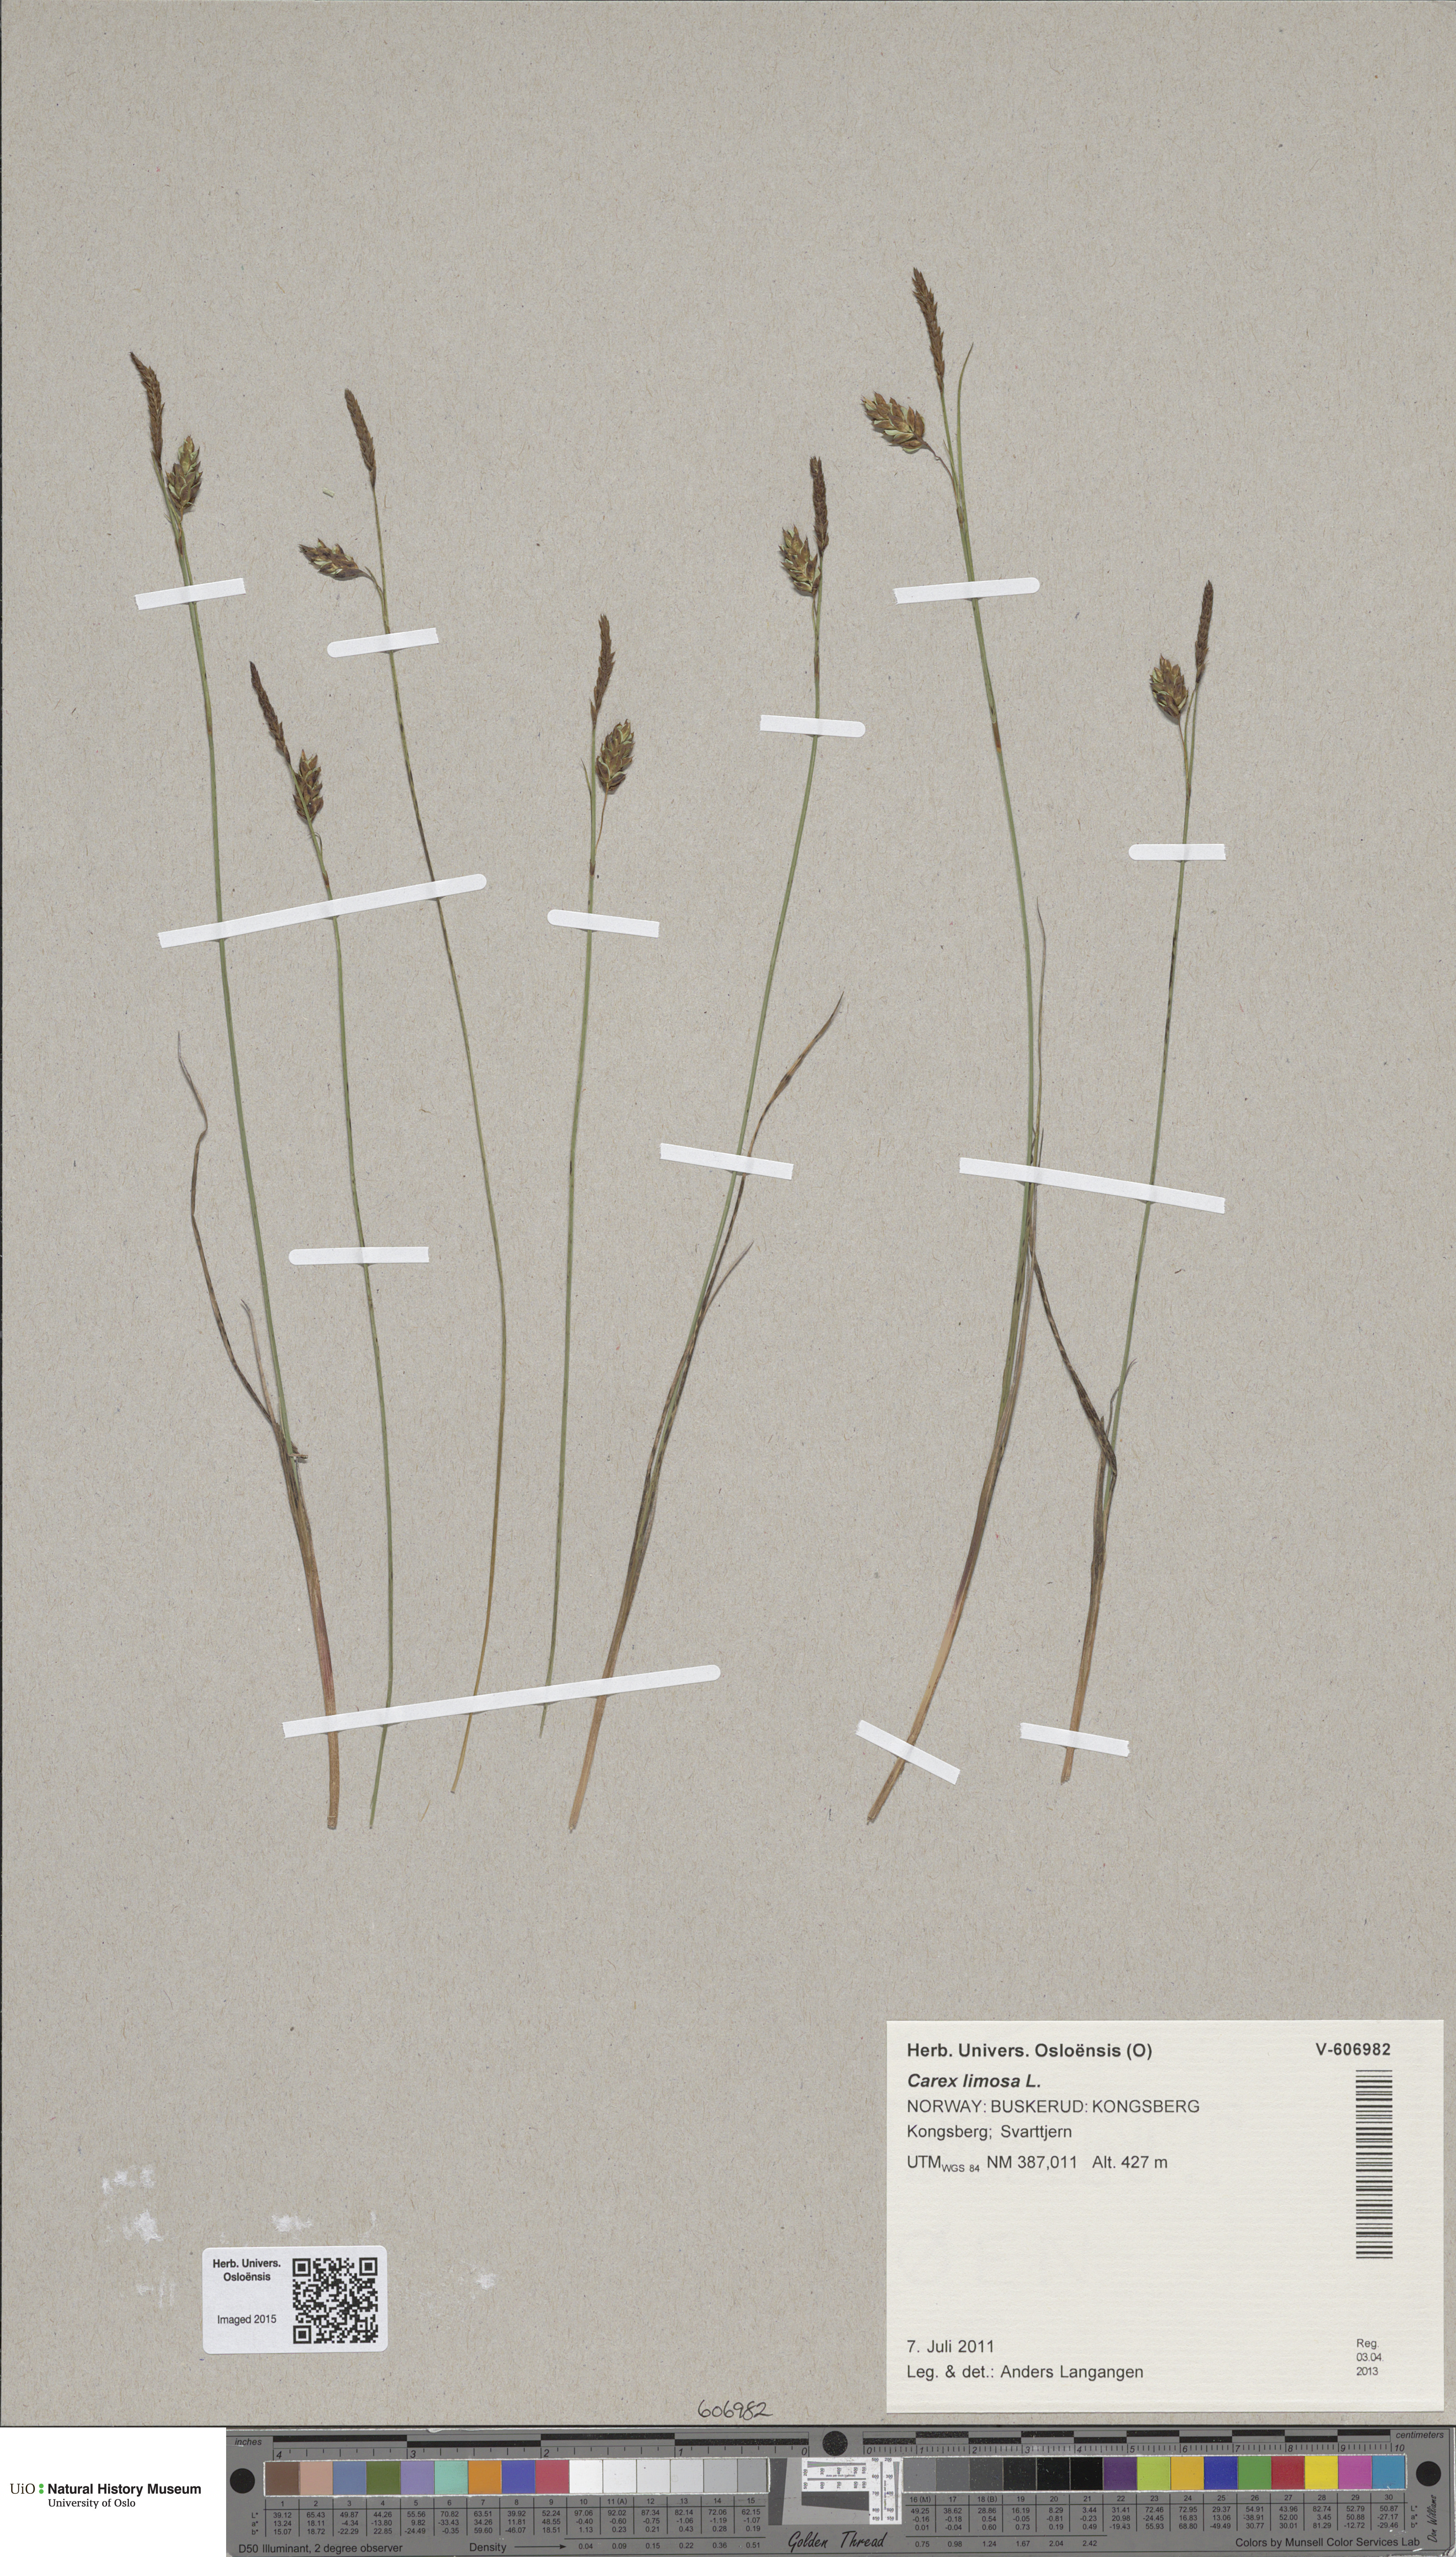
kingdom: Plantae
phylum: Tracheophyta
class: Liliopsida
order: Poales
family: Cyperaceae
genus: Carex
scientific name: Carex limosa
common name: Bog sedge
